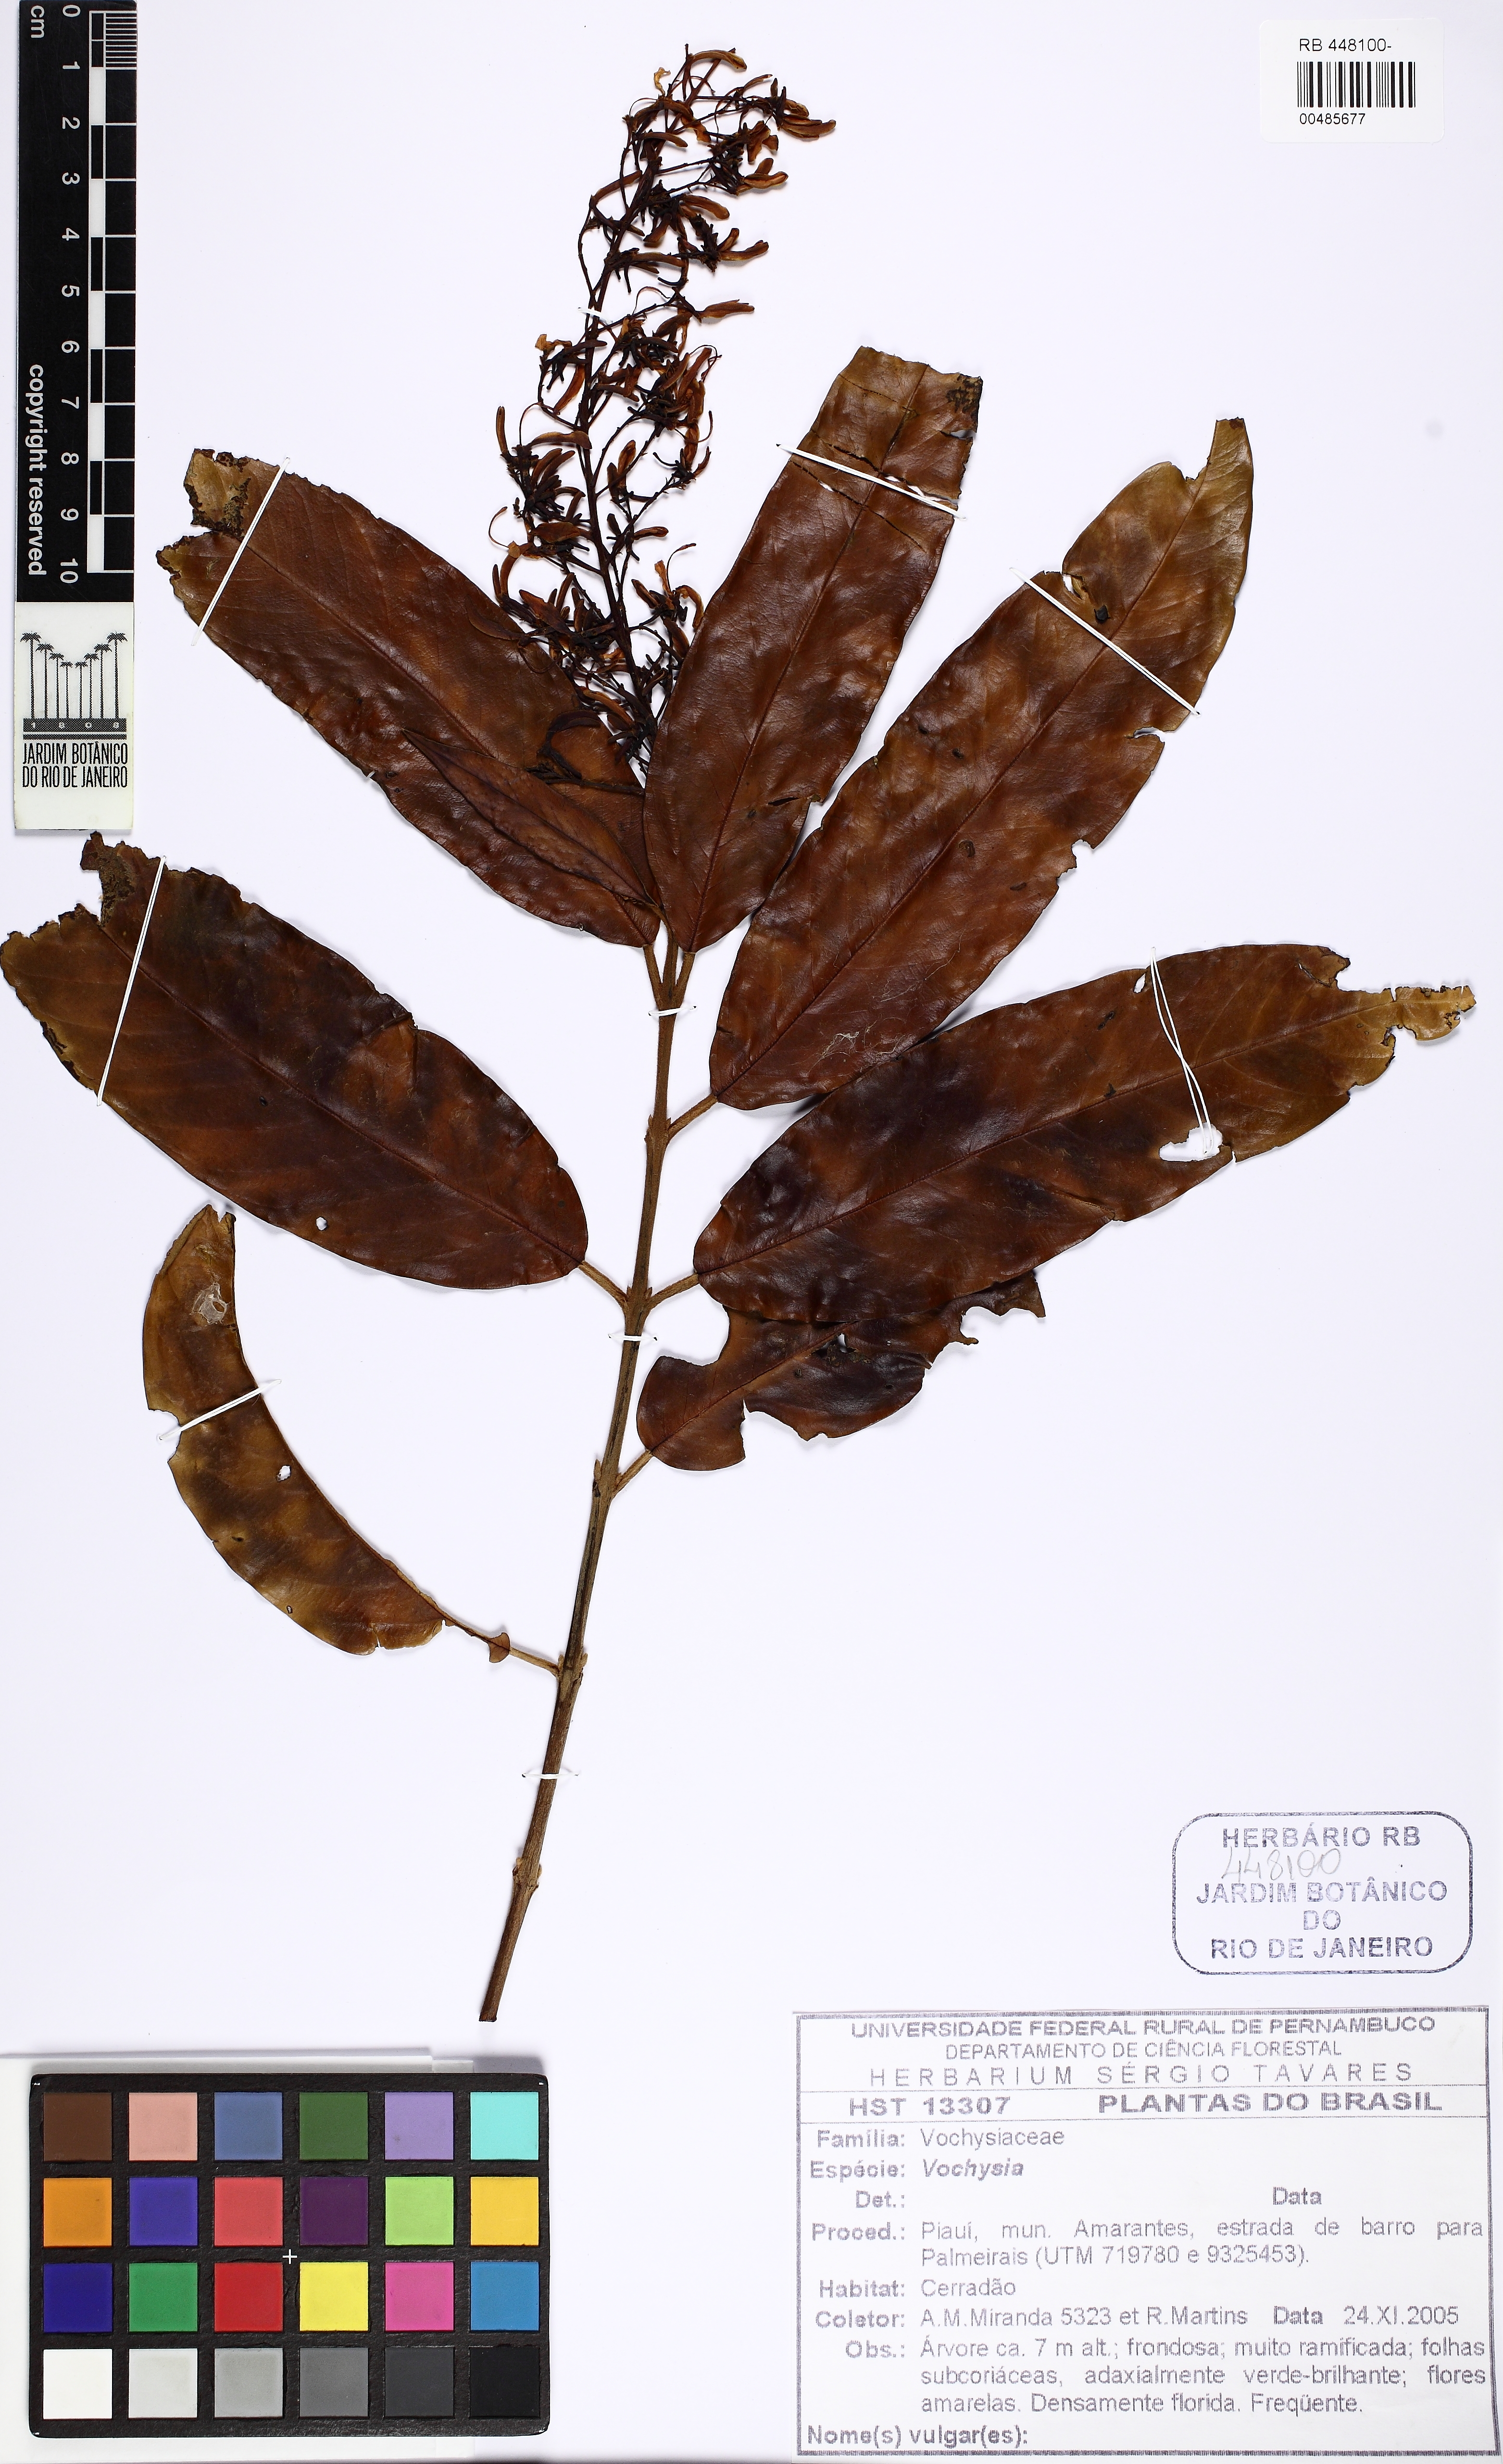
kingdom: Plantae
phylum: Tracheophyta
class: Magnoliopsida
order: Myrtales
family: Vochysiaceae
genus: Vochysia
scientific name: Vochysia
